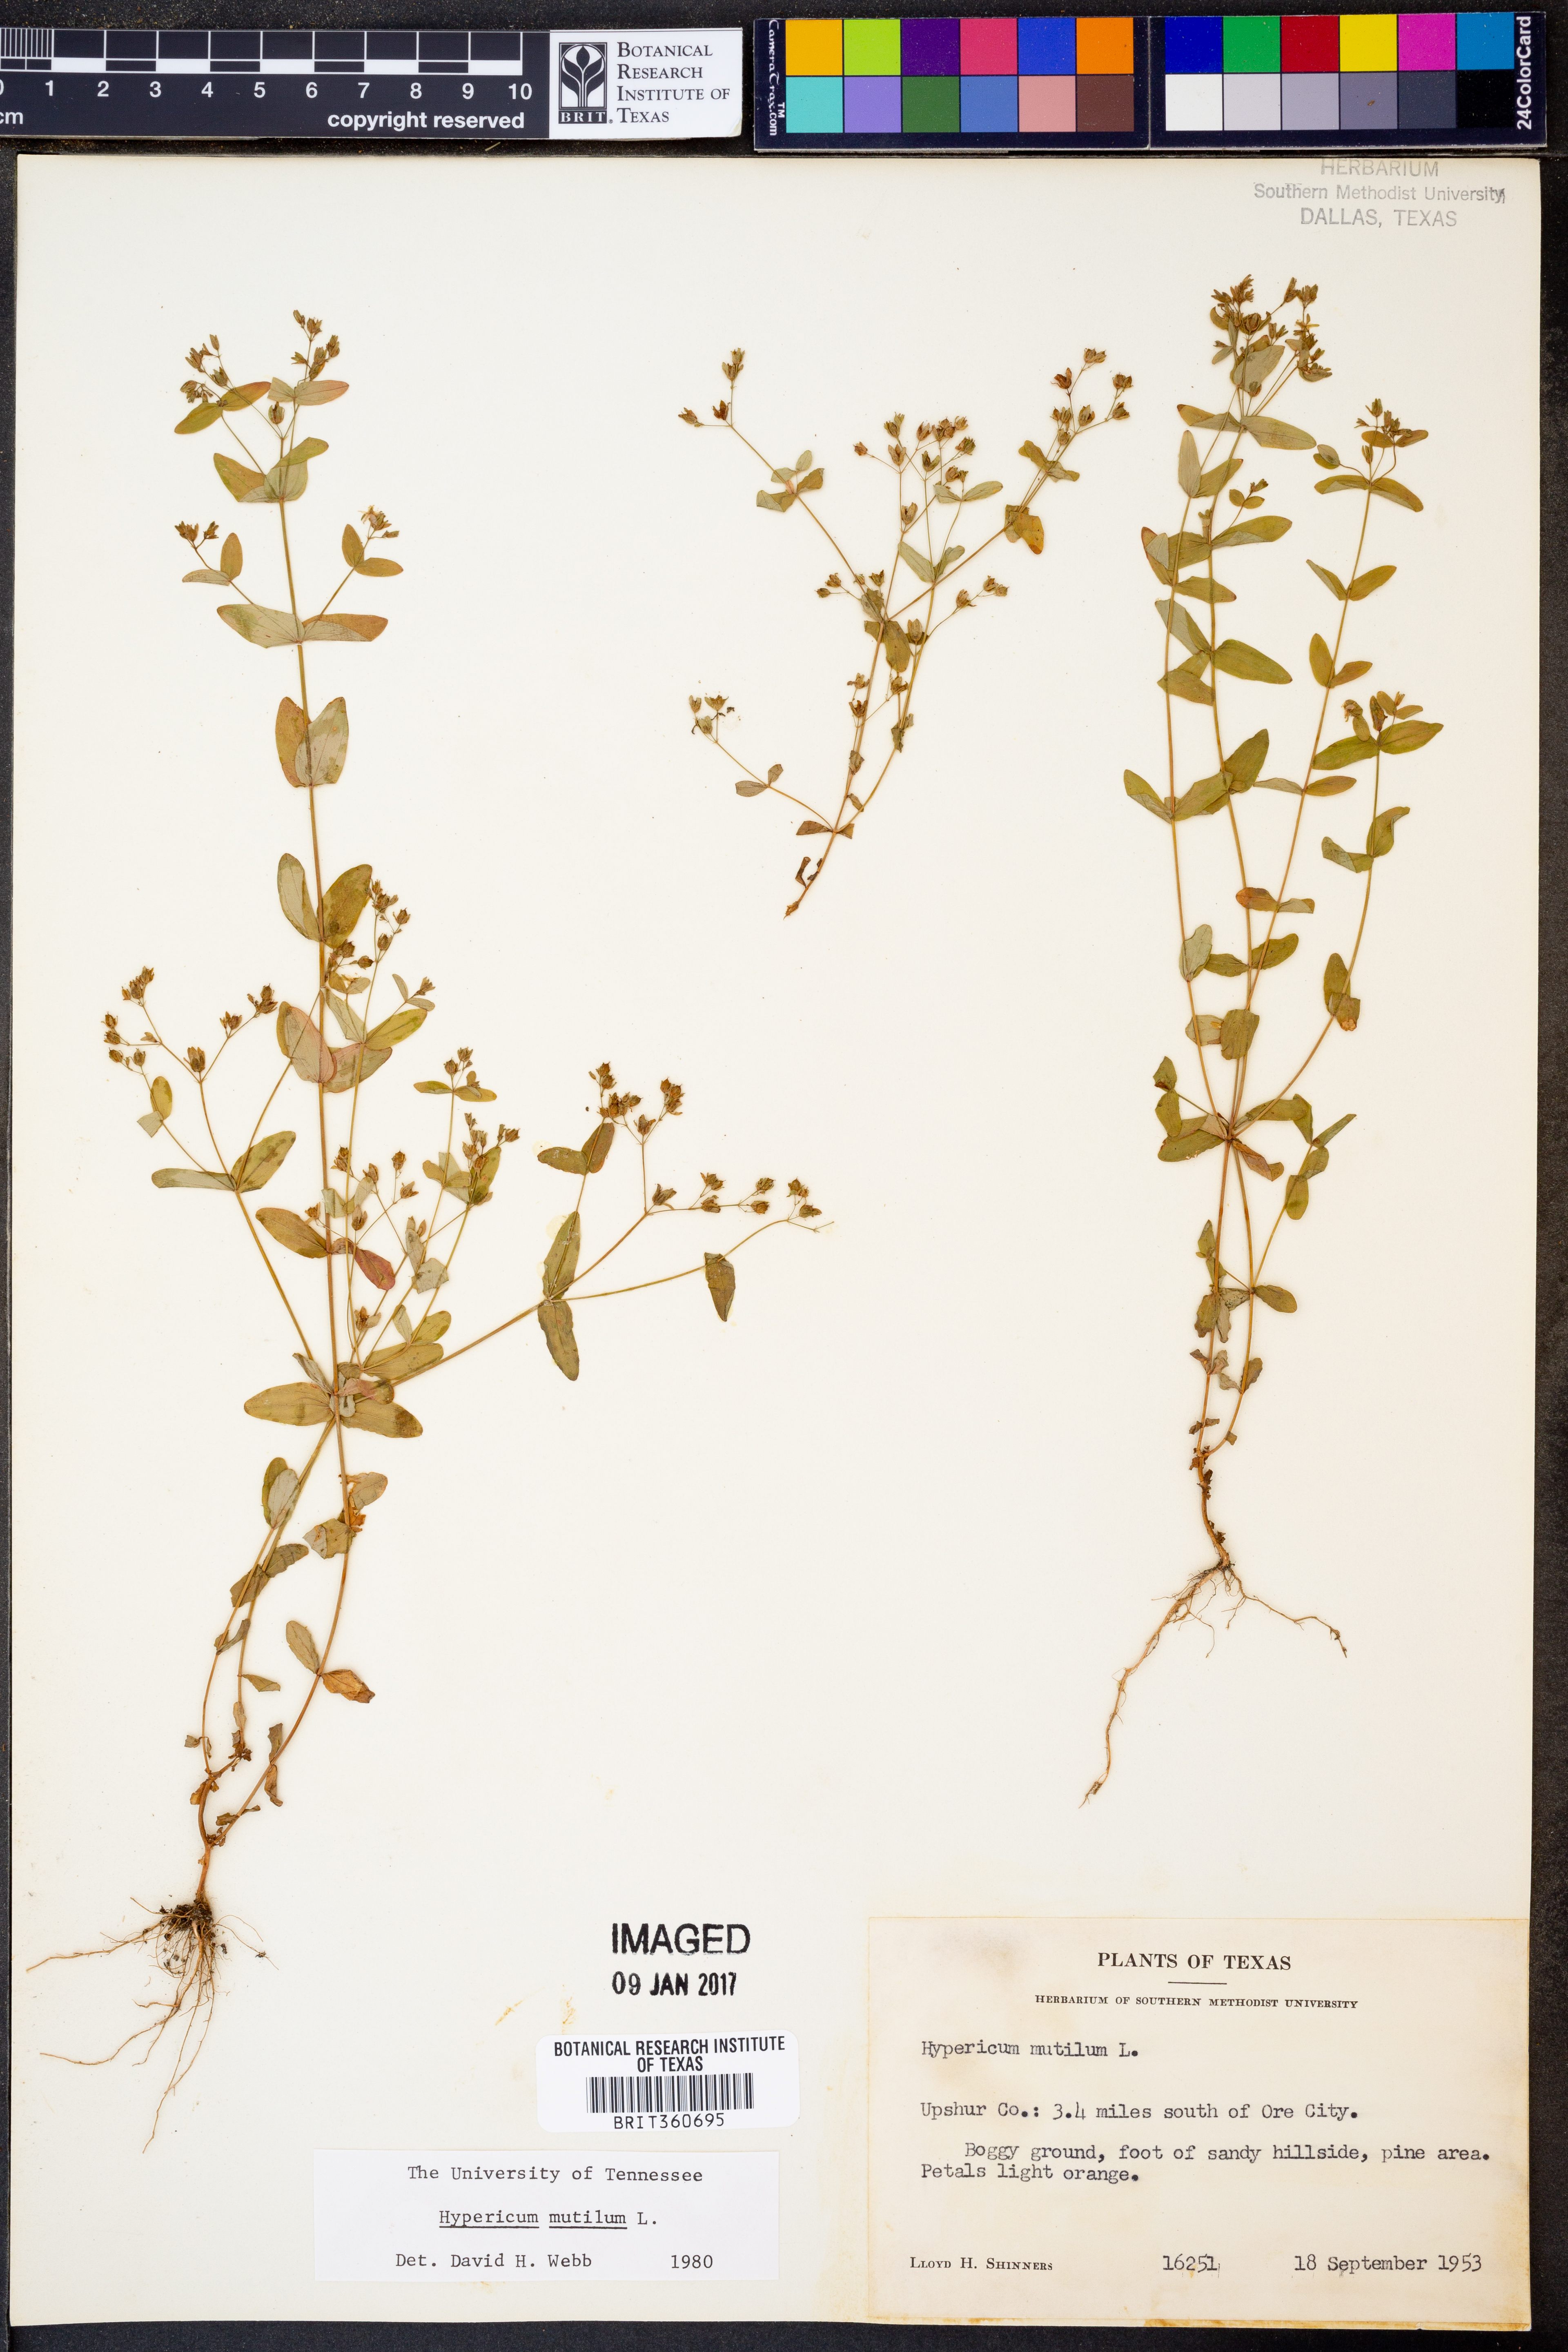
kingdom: Plantae
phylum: Tracheophyta
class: Magnoliopsida
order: Malpighiales
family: Hypericaceae
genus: Hypericum
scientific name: Hypericum mutilum
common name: Dwarf st. john's-wort
